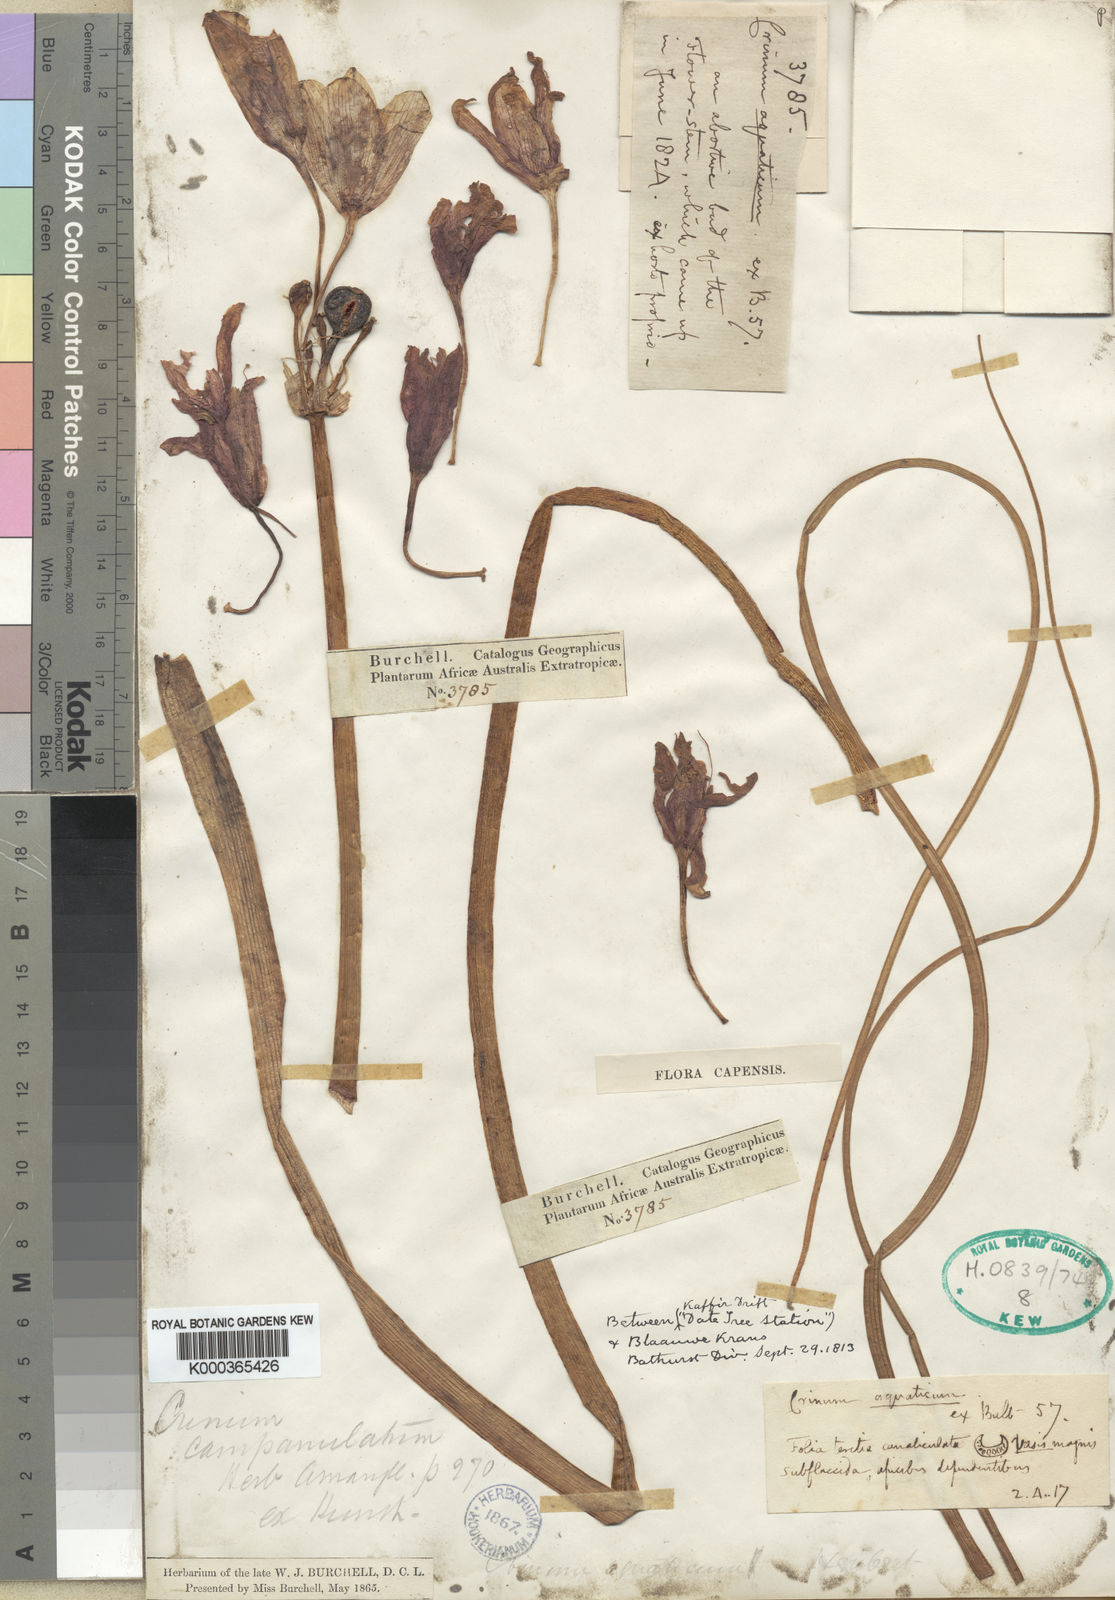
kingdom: Plantae
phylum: Tracheophyta
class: Liliopsida
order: Asparagales
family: Amaryllidaceae
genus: Crinum
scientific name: Crinum campanulatum
